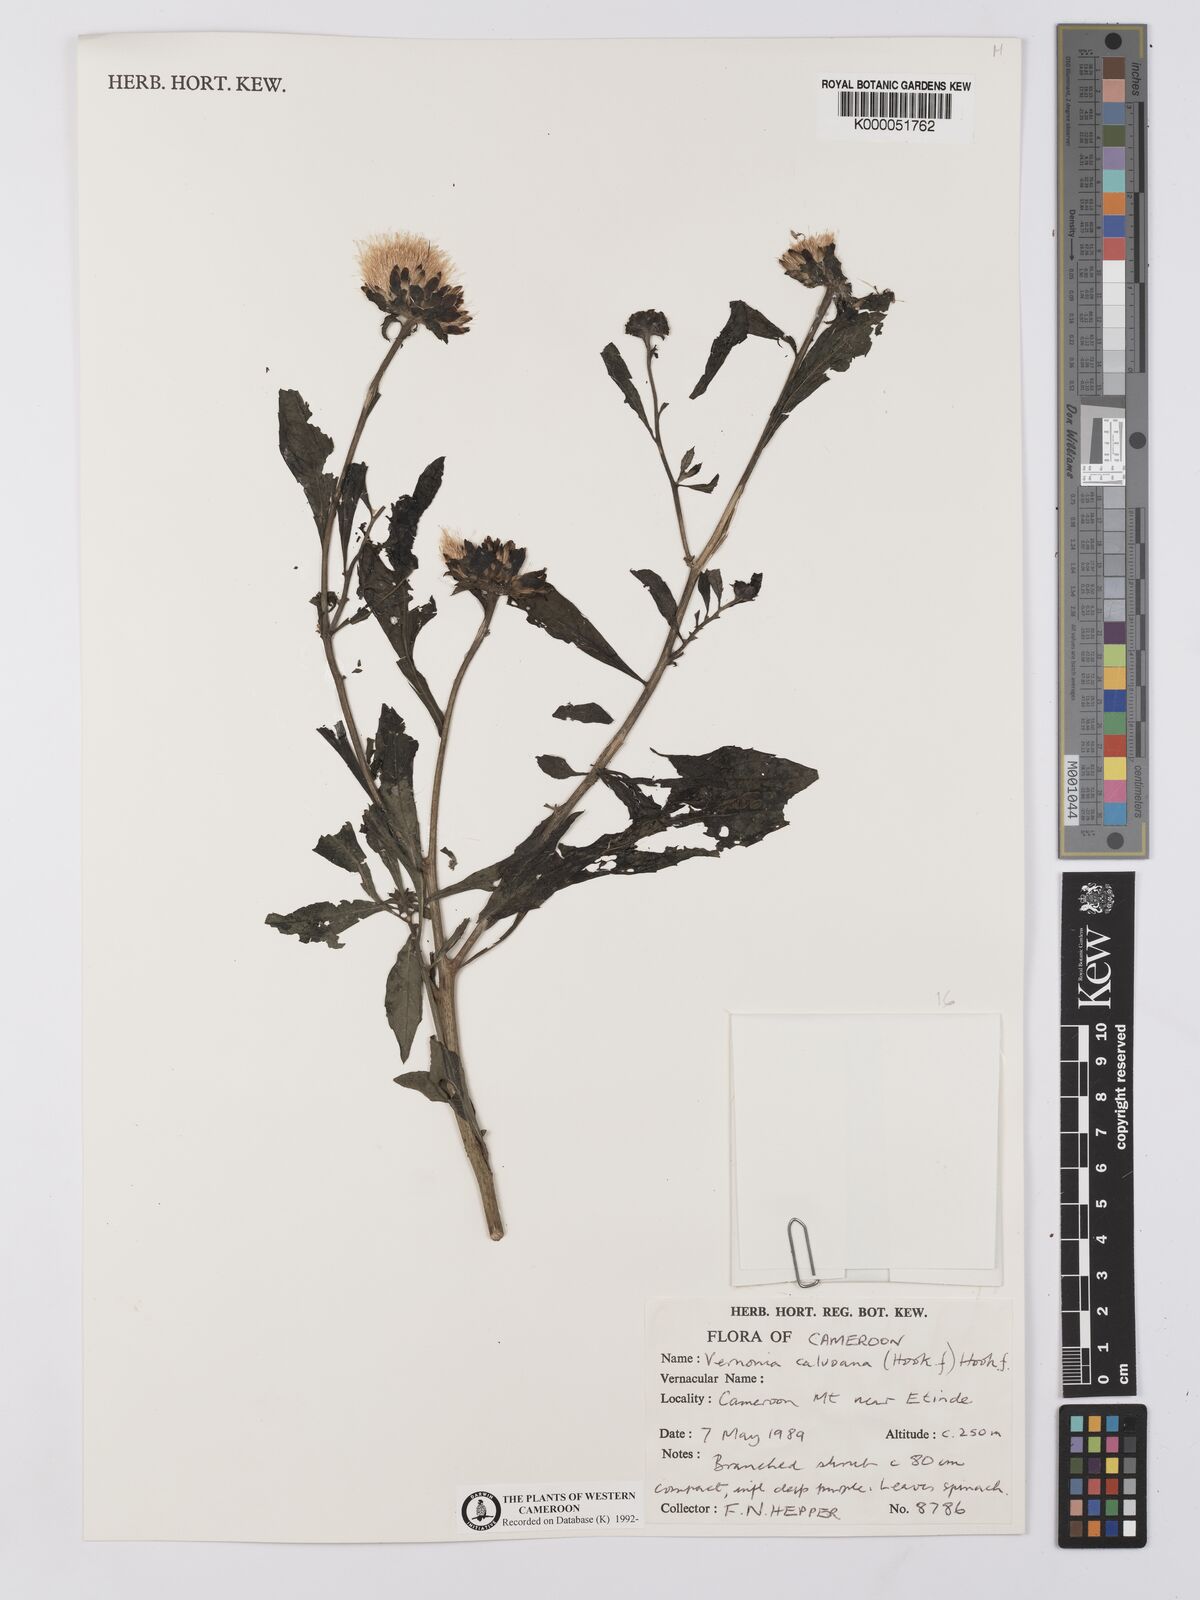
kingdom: Plantae
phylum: Tracheophyta
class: Magnoliopsida
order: Asterales
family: Asteraceae
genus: Baccharoides
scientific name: Baccharoides calvoana
